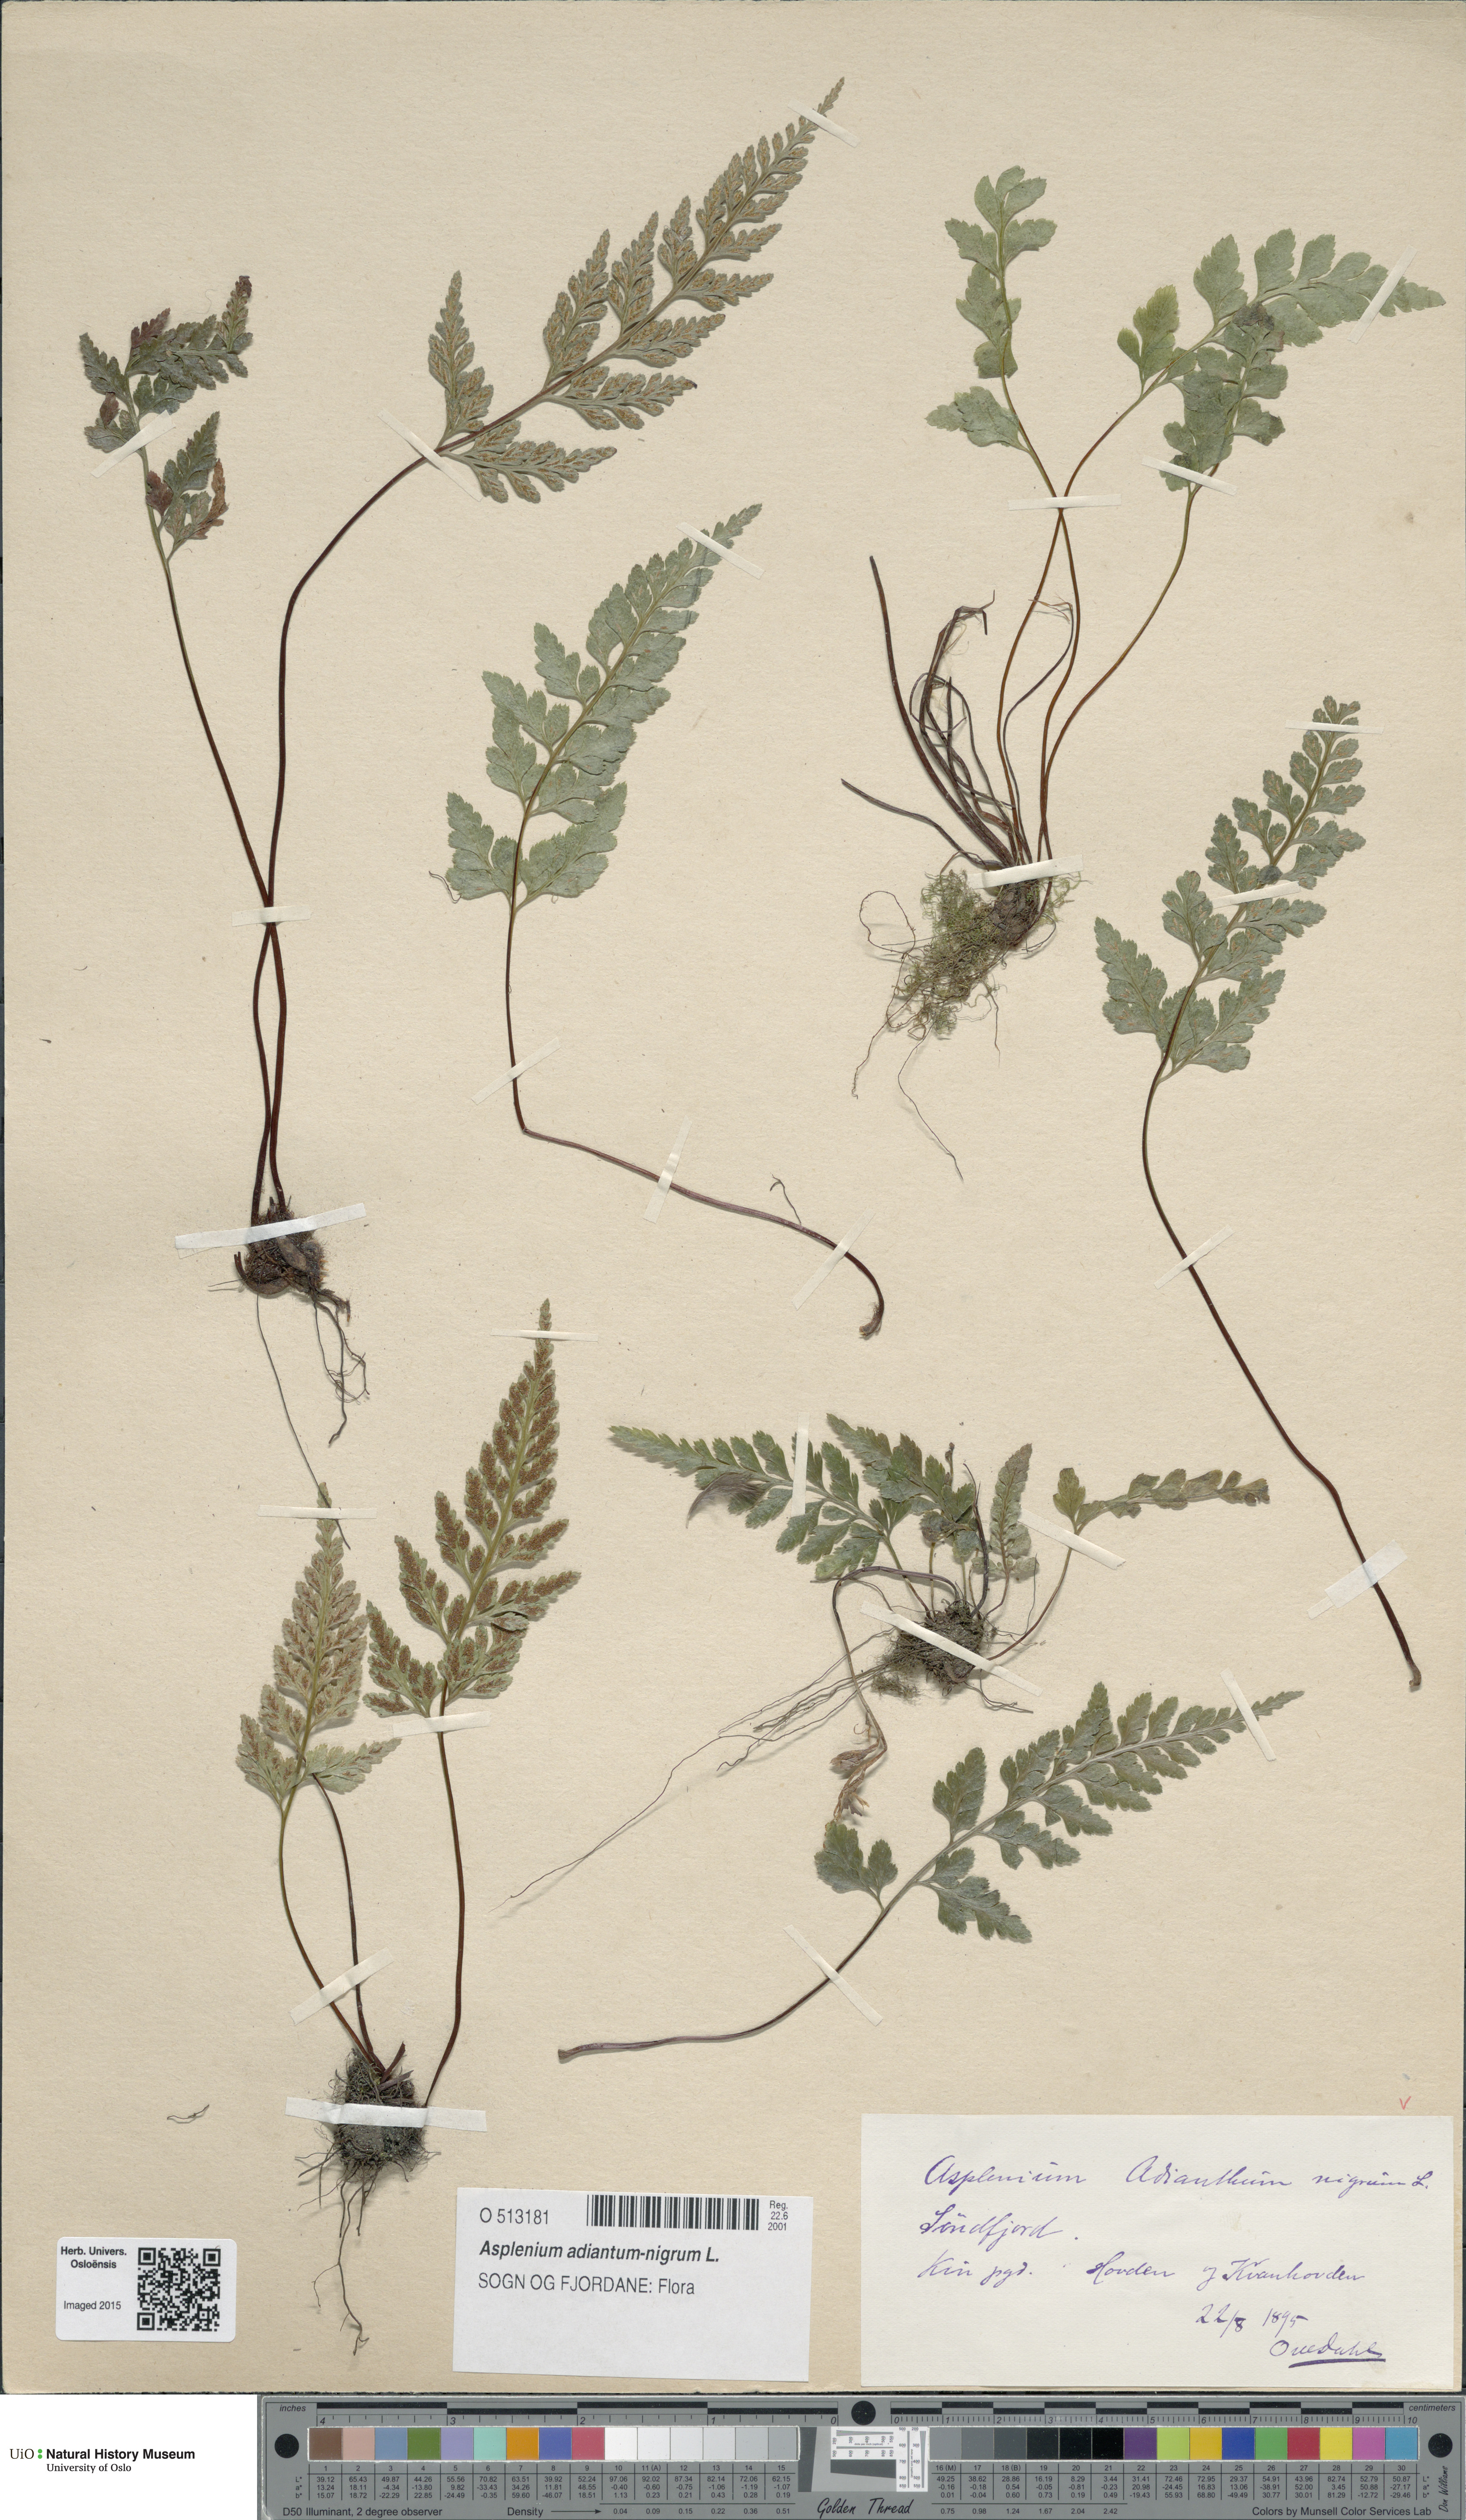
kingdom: Plantae
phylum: Tracheophyta
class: Polypodiopsida
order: Polypodiales
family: Aspleniaceae
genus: Asplenium
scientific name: Asplenium adiantum-nigrum
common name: Black spleenwort
